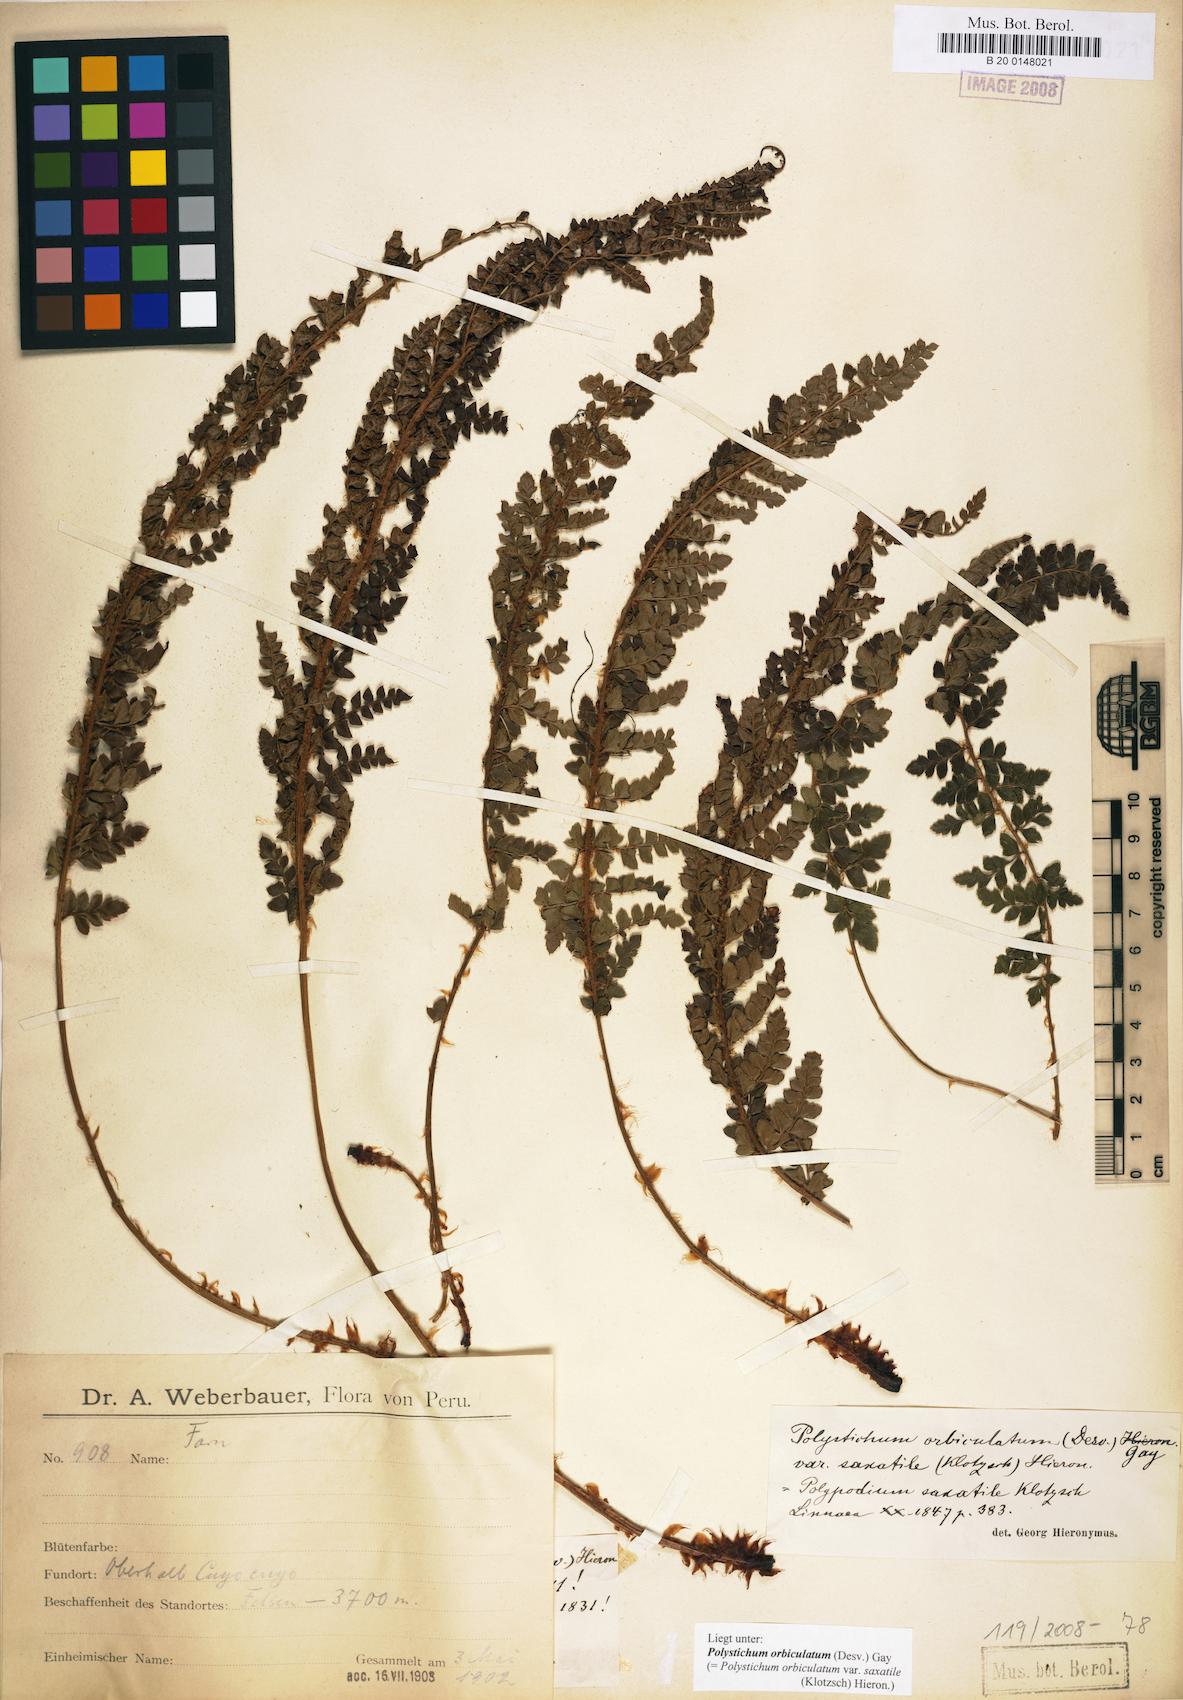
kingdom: Plantae
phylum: Tracheophyta
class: Polypodiopsida
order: Polypodiales
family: Dryopteridaceae
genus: Polystichum
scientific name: Polystichum orbiculatum
